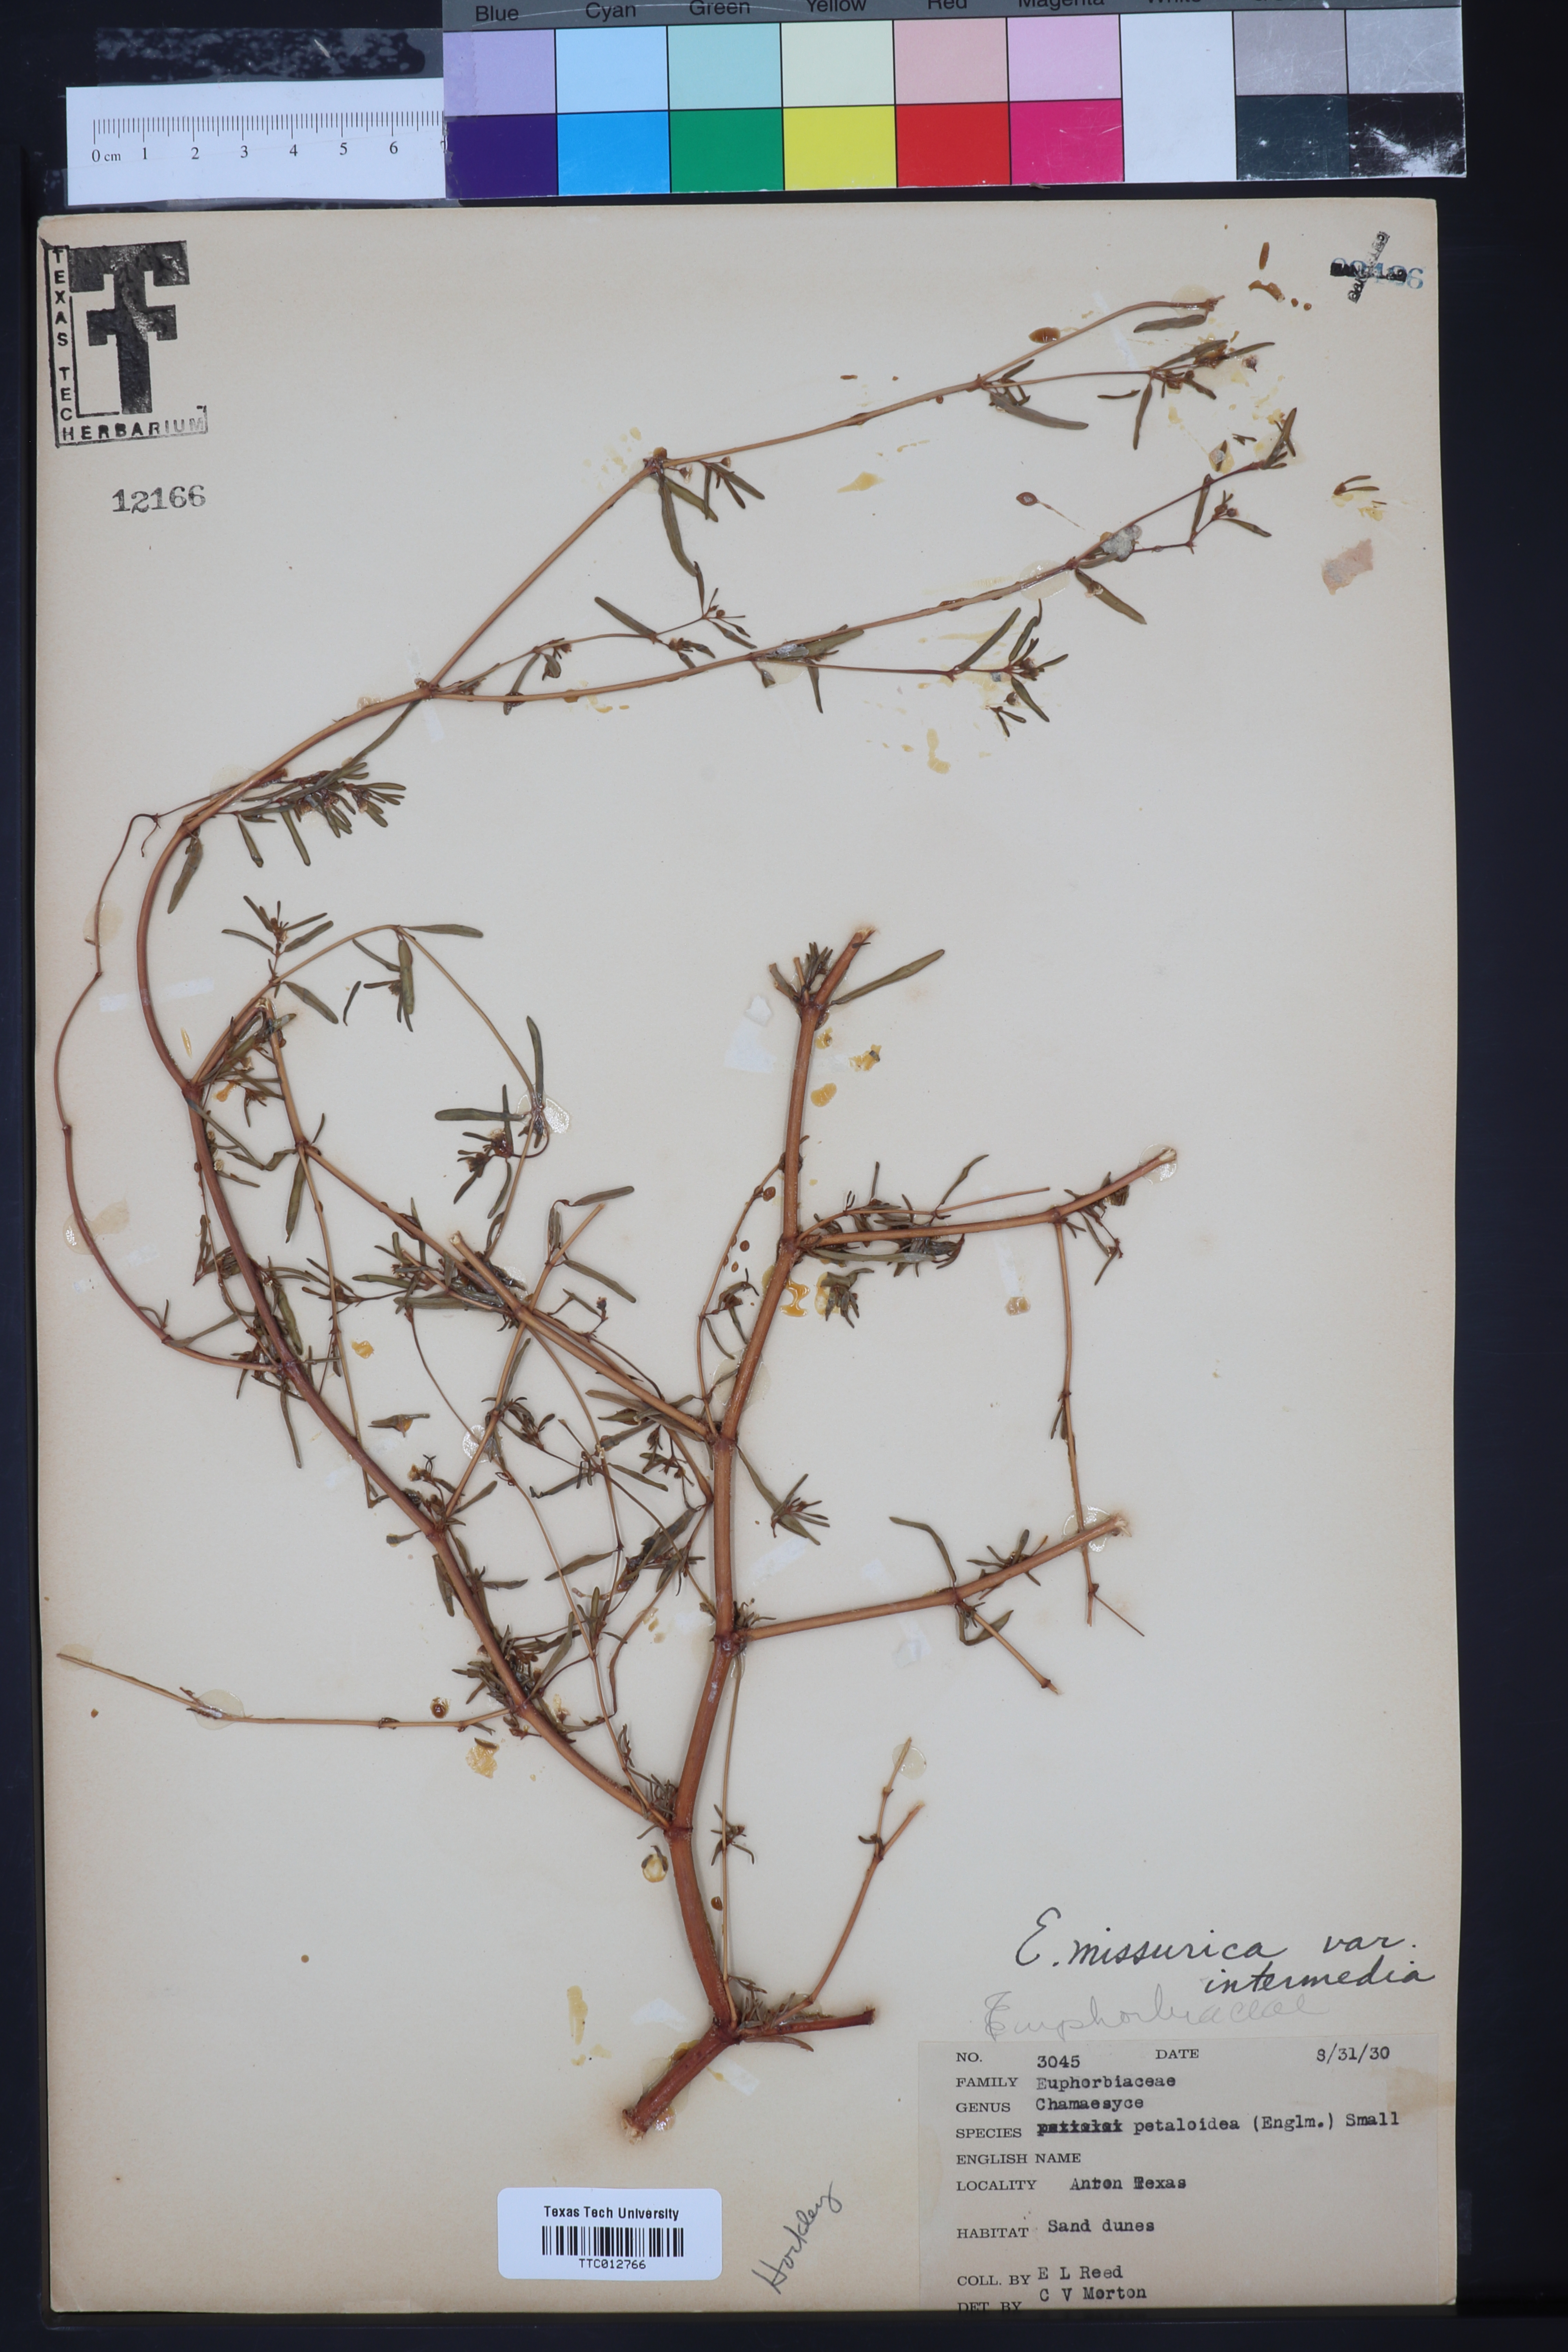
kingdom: Plantae
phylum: Tracheophyta
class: Magnoliopsida
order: Malpighiales
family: Euphorbiaceae
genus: Euphorbia
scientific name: Euphorbia missurica
